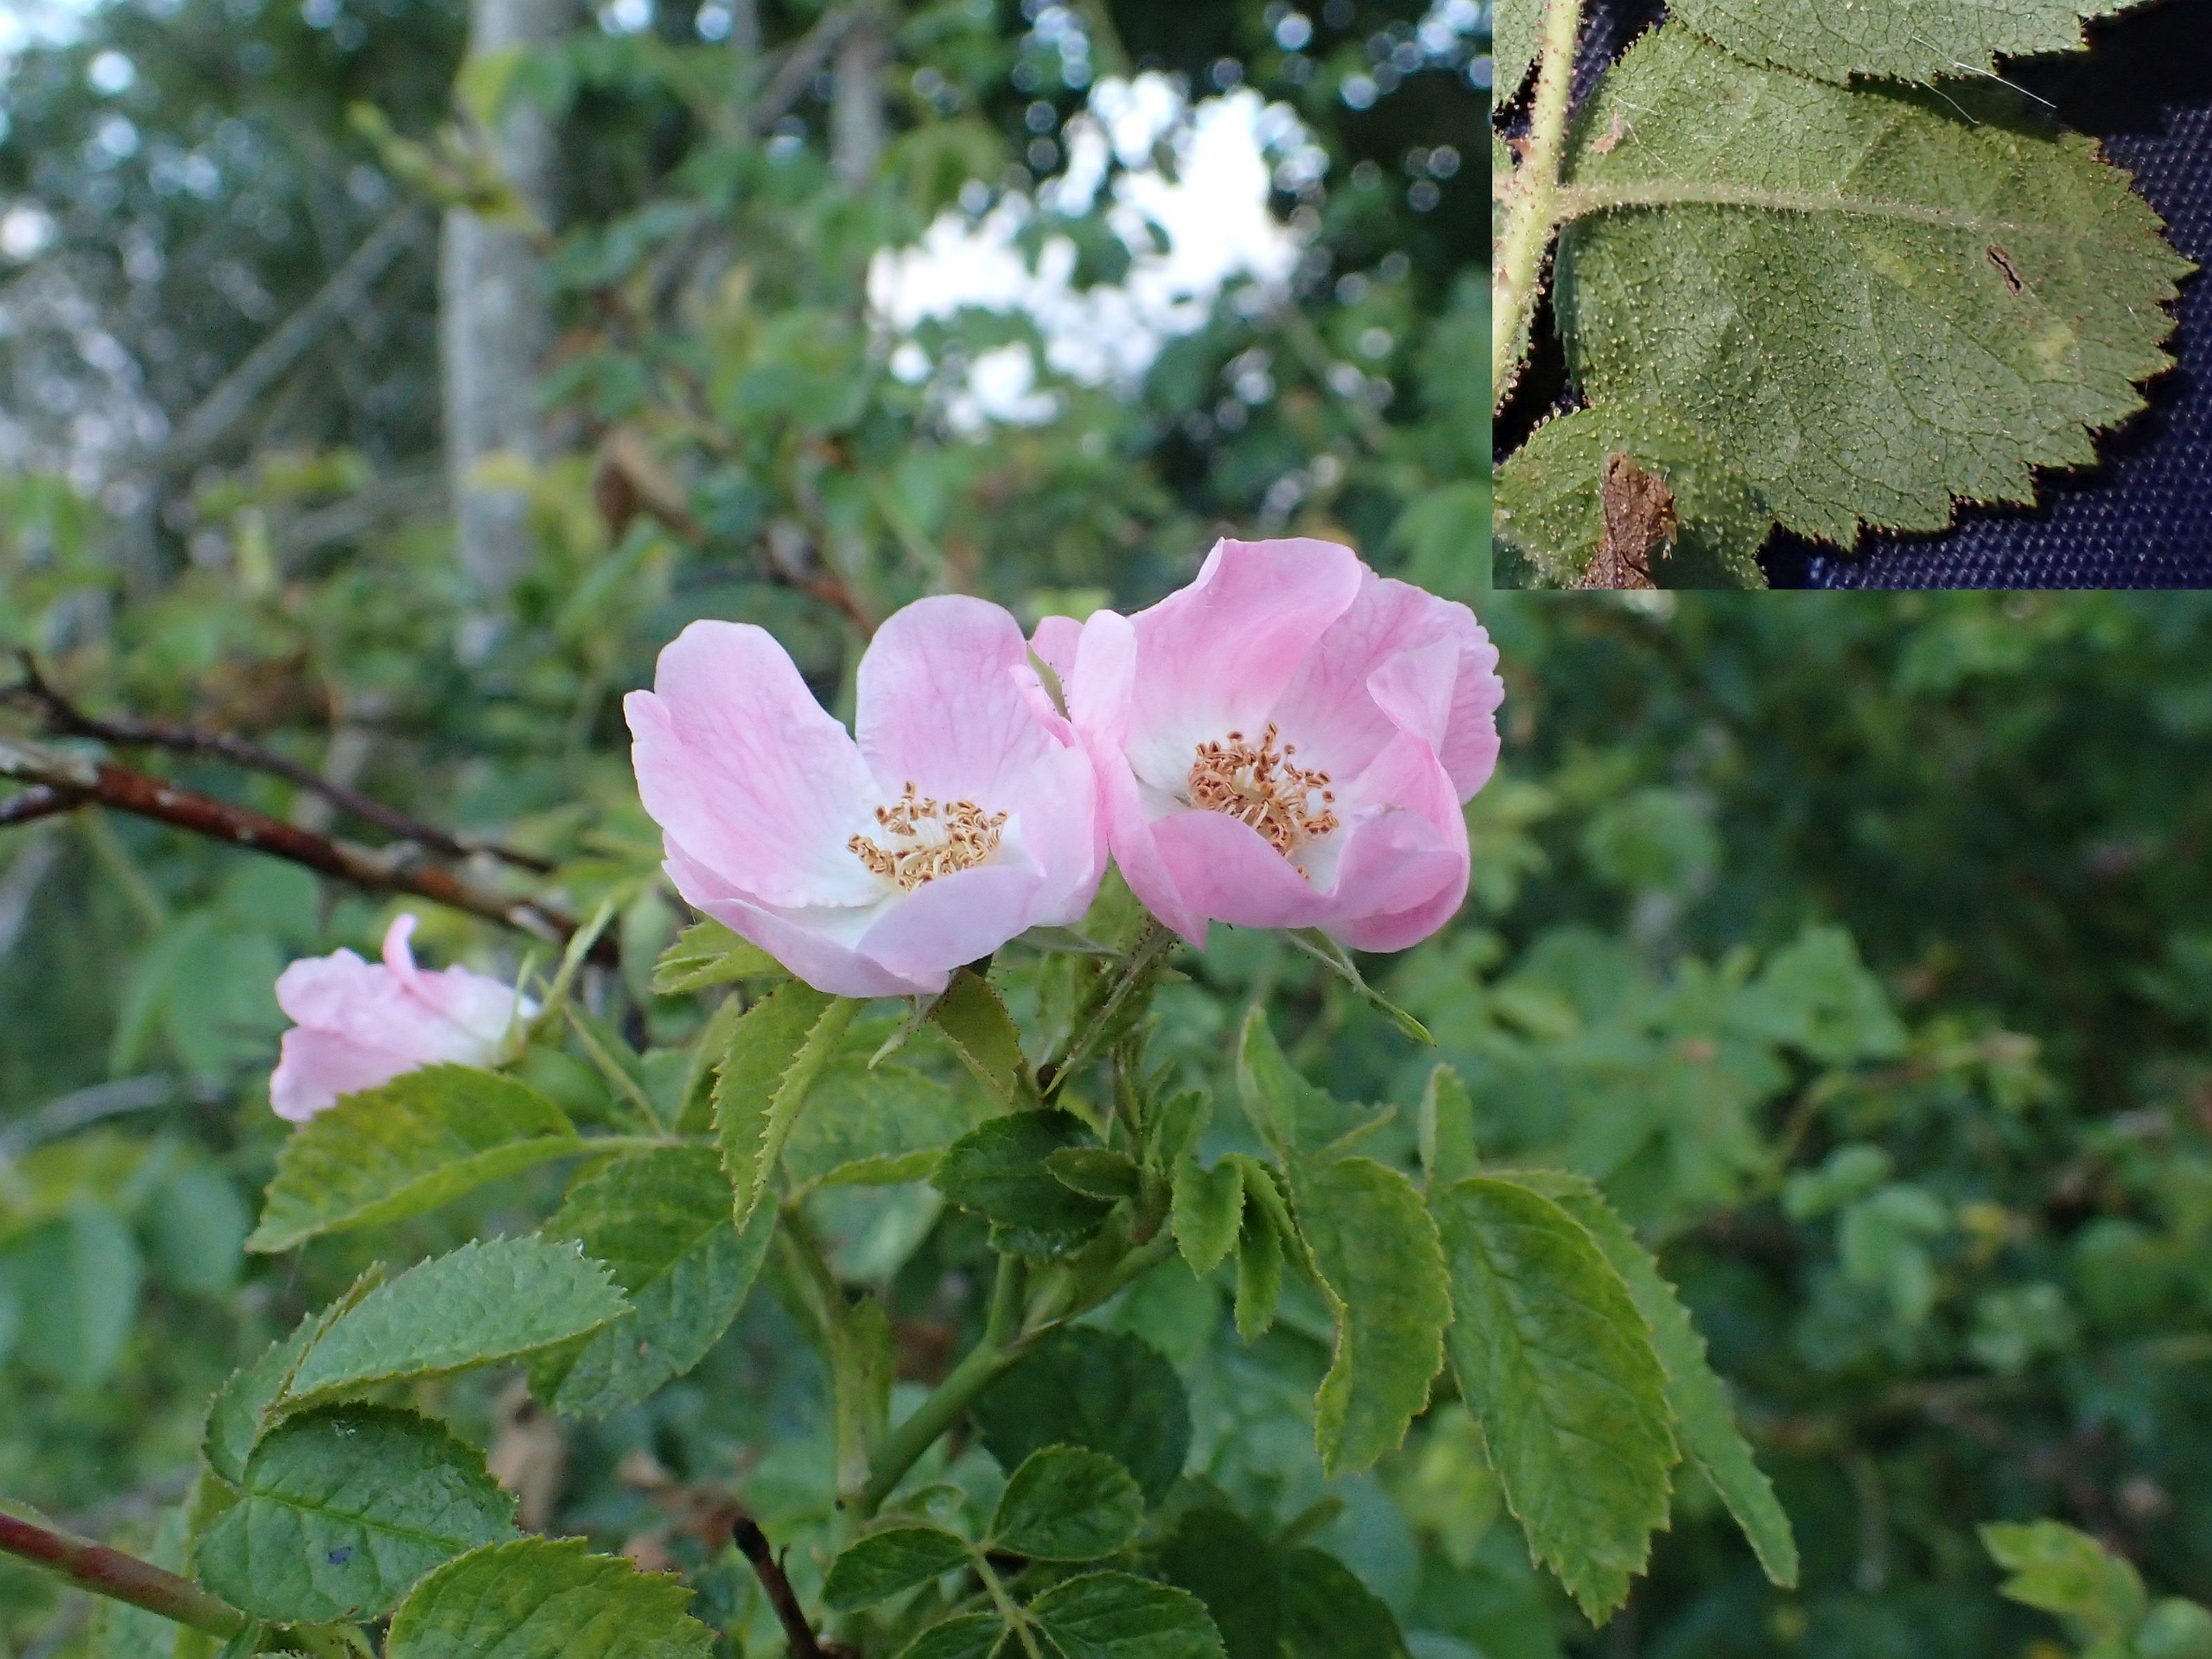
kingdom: Plantae
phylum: Tracheophyta
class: Magnoliopsida
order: Rosales
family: Rosaceae
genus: Rosa
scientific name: Rosa rubiginosa
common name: Æble-rose
